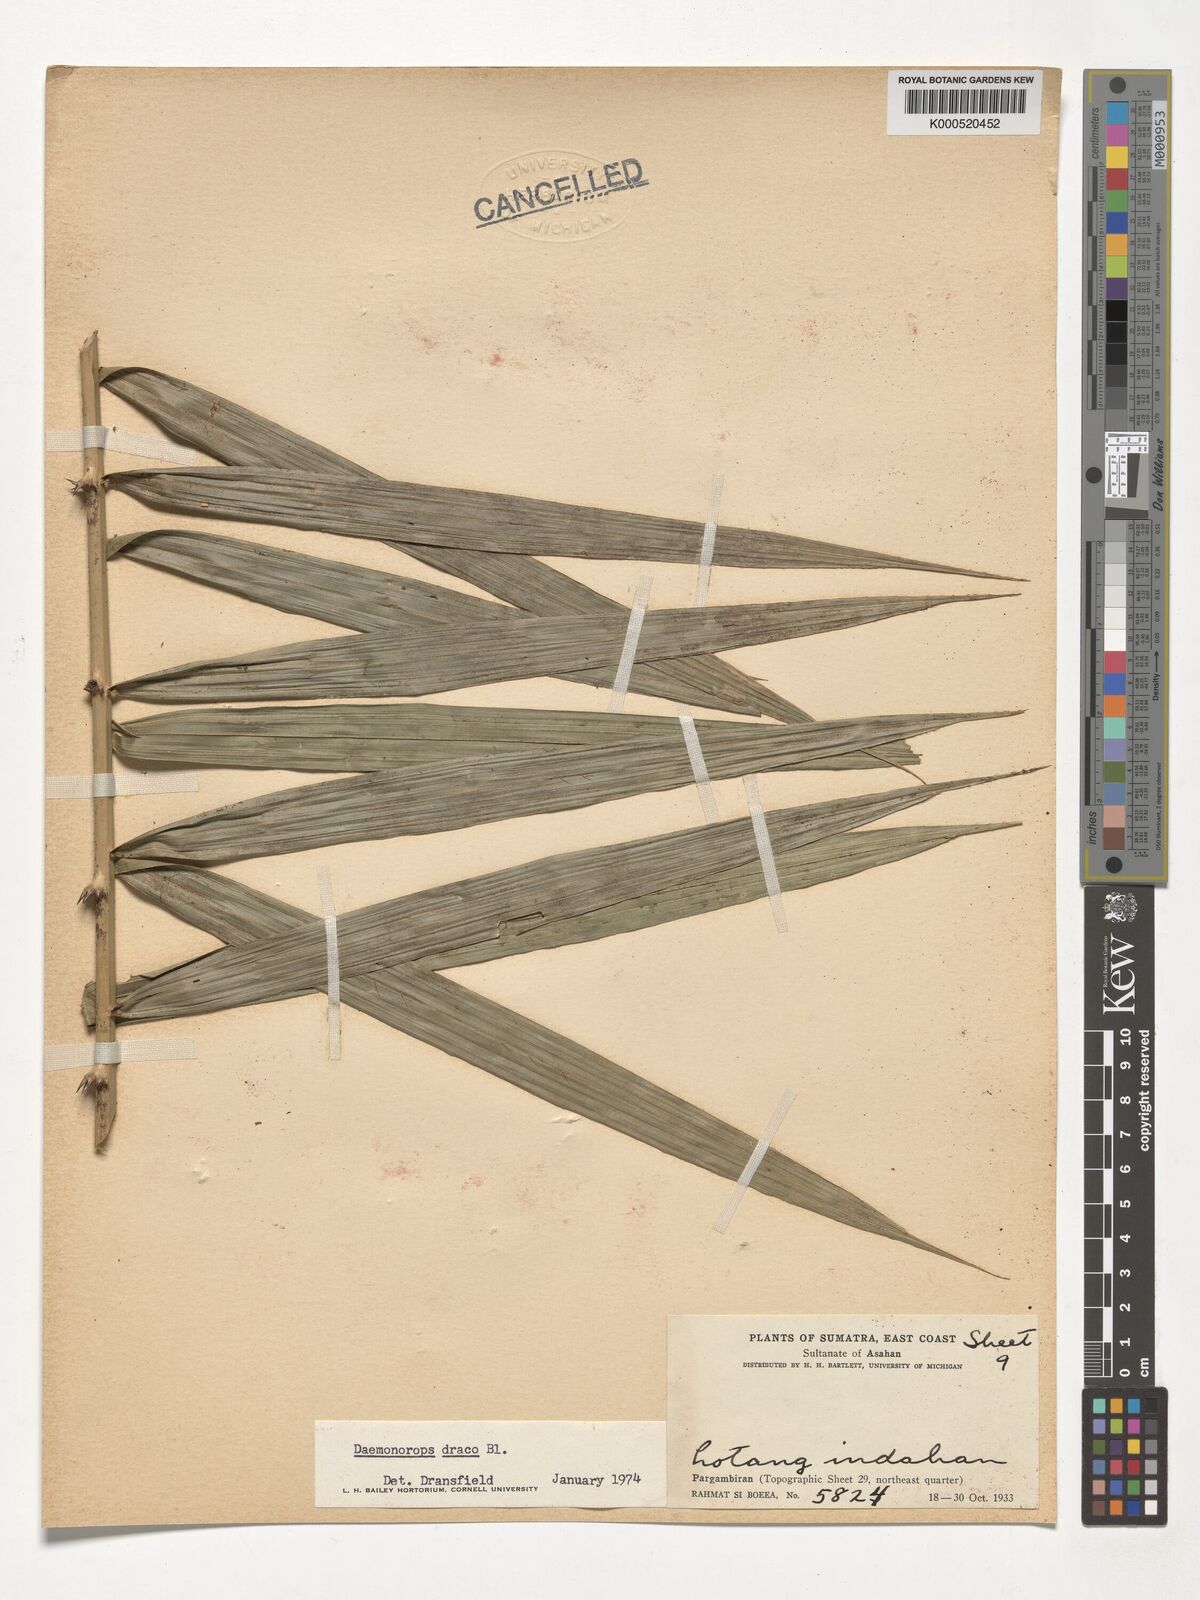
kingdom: Plantae
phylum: Tracheophyta
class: Liliopsida
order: Arecales
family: Arecaceae
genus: Calamus
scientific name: Calamus draco
